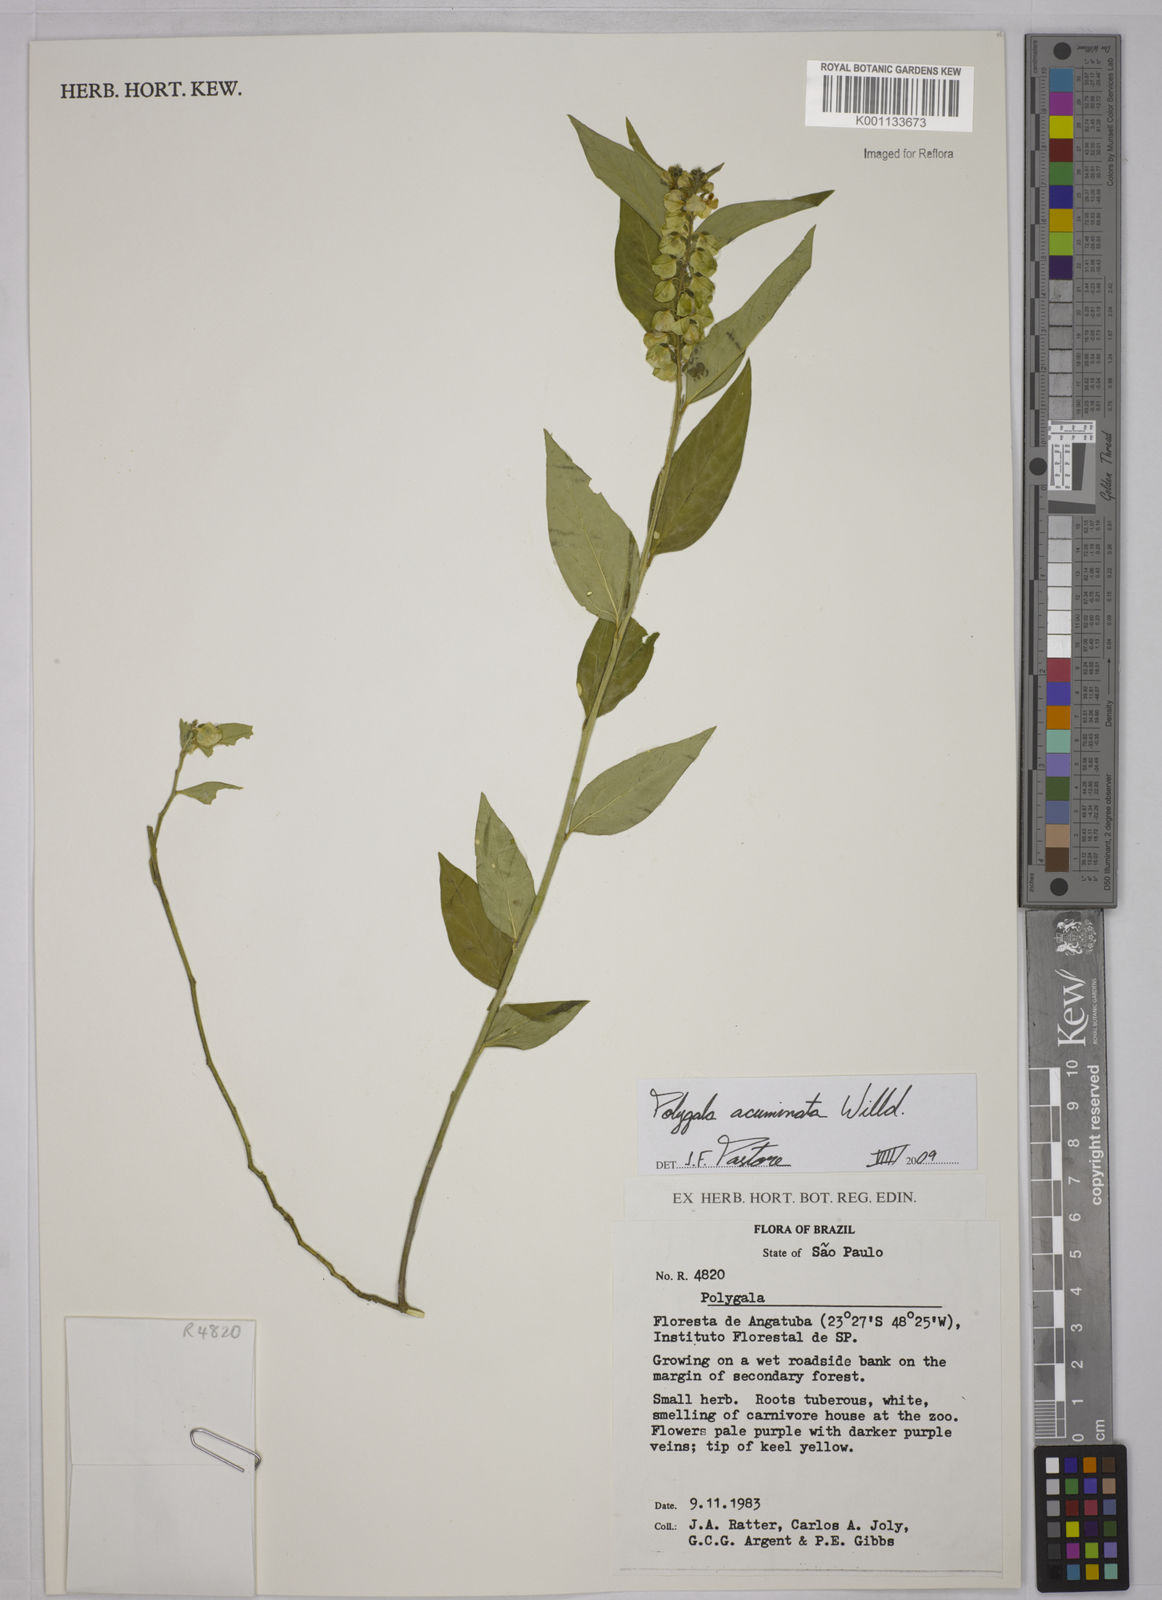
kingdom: Plantae
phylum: Tracheophyta
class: Magnoliopsida
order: Fabales
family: Polygalaceae
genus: Asemeia
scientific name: Asemeia acuminata
